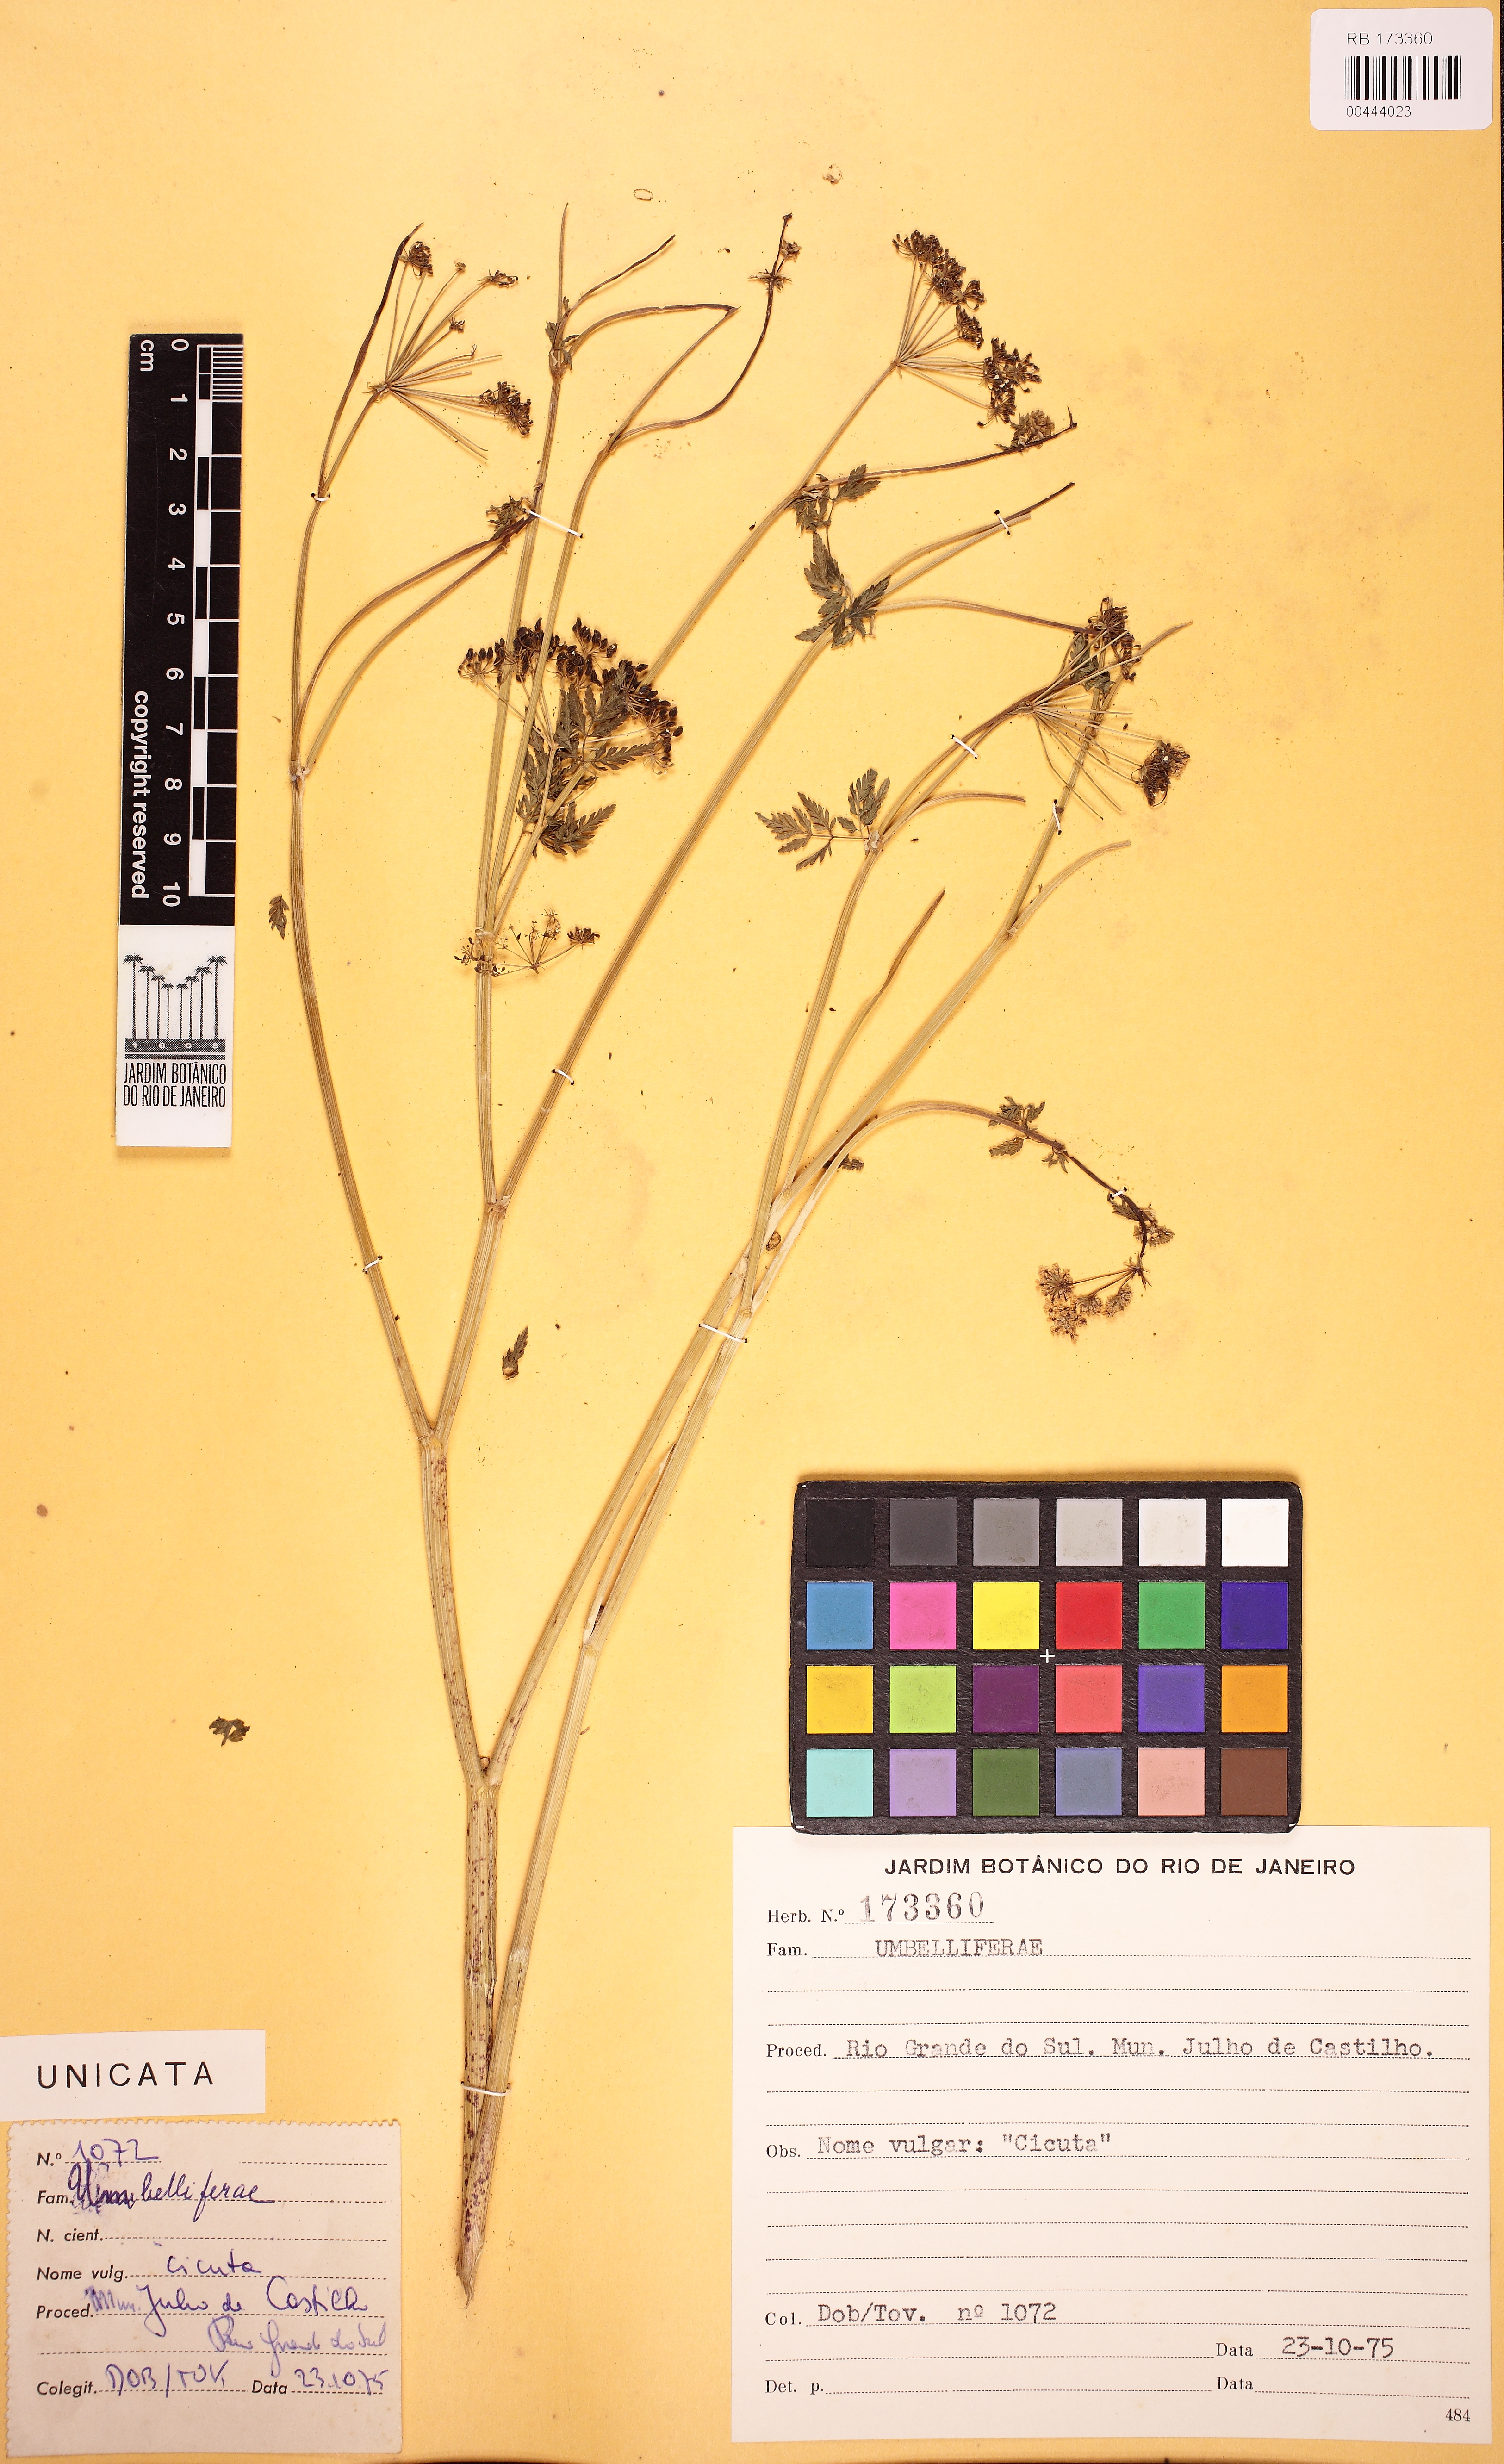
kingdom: Plantae
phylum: Tracheophyta
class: Magnoliopsida
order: Apiales
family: Apiaceae
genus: Conium
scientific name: Conium maculatum
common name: Hemlock
